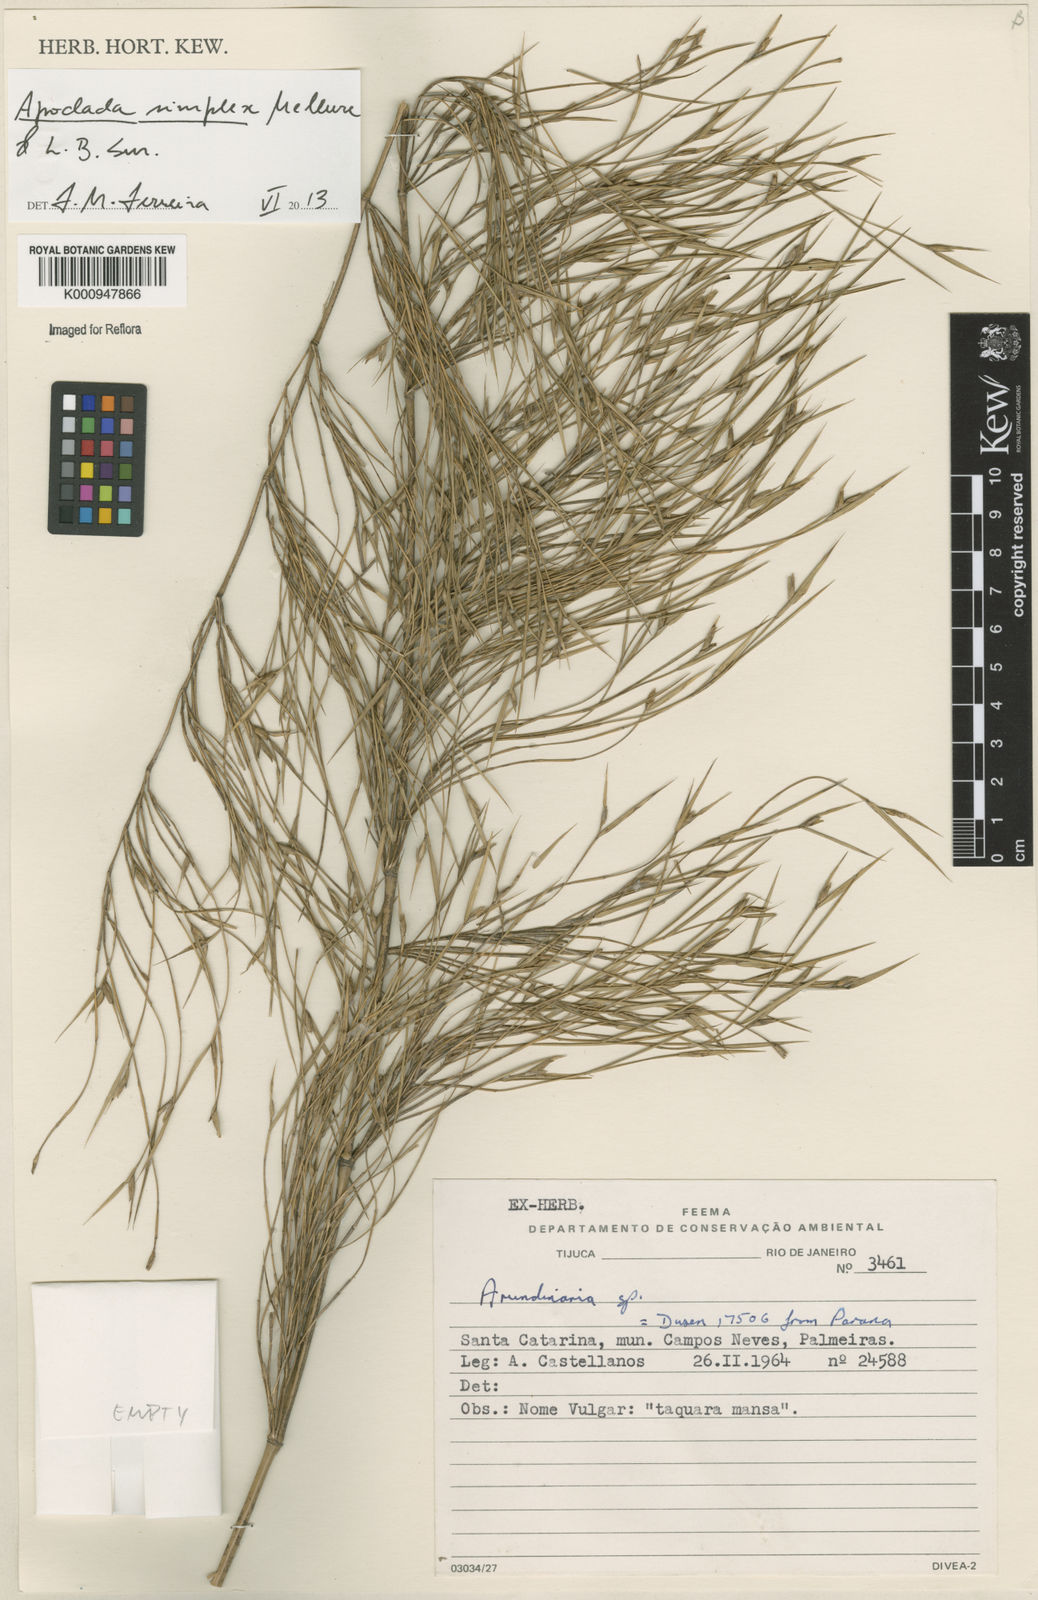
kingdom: Plantae
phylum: Tracheophyta
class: Liliopsida
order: Poales
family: Poaceae
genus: Apoclada
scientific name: Apoclada simplex
